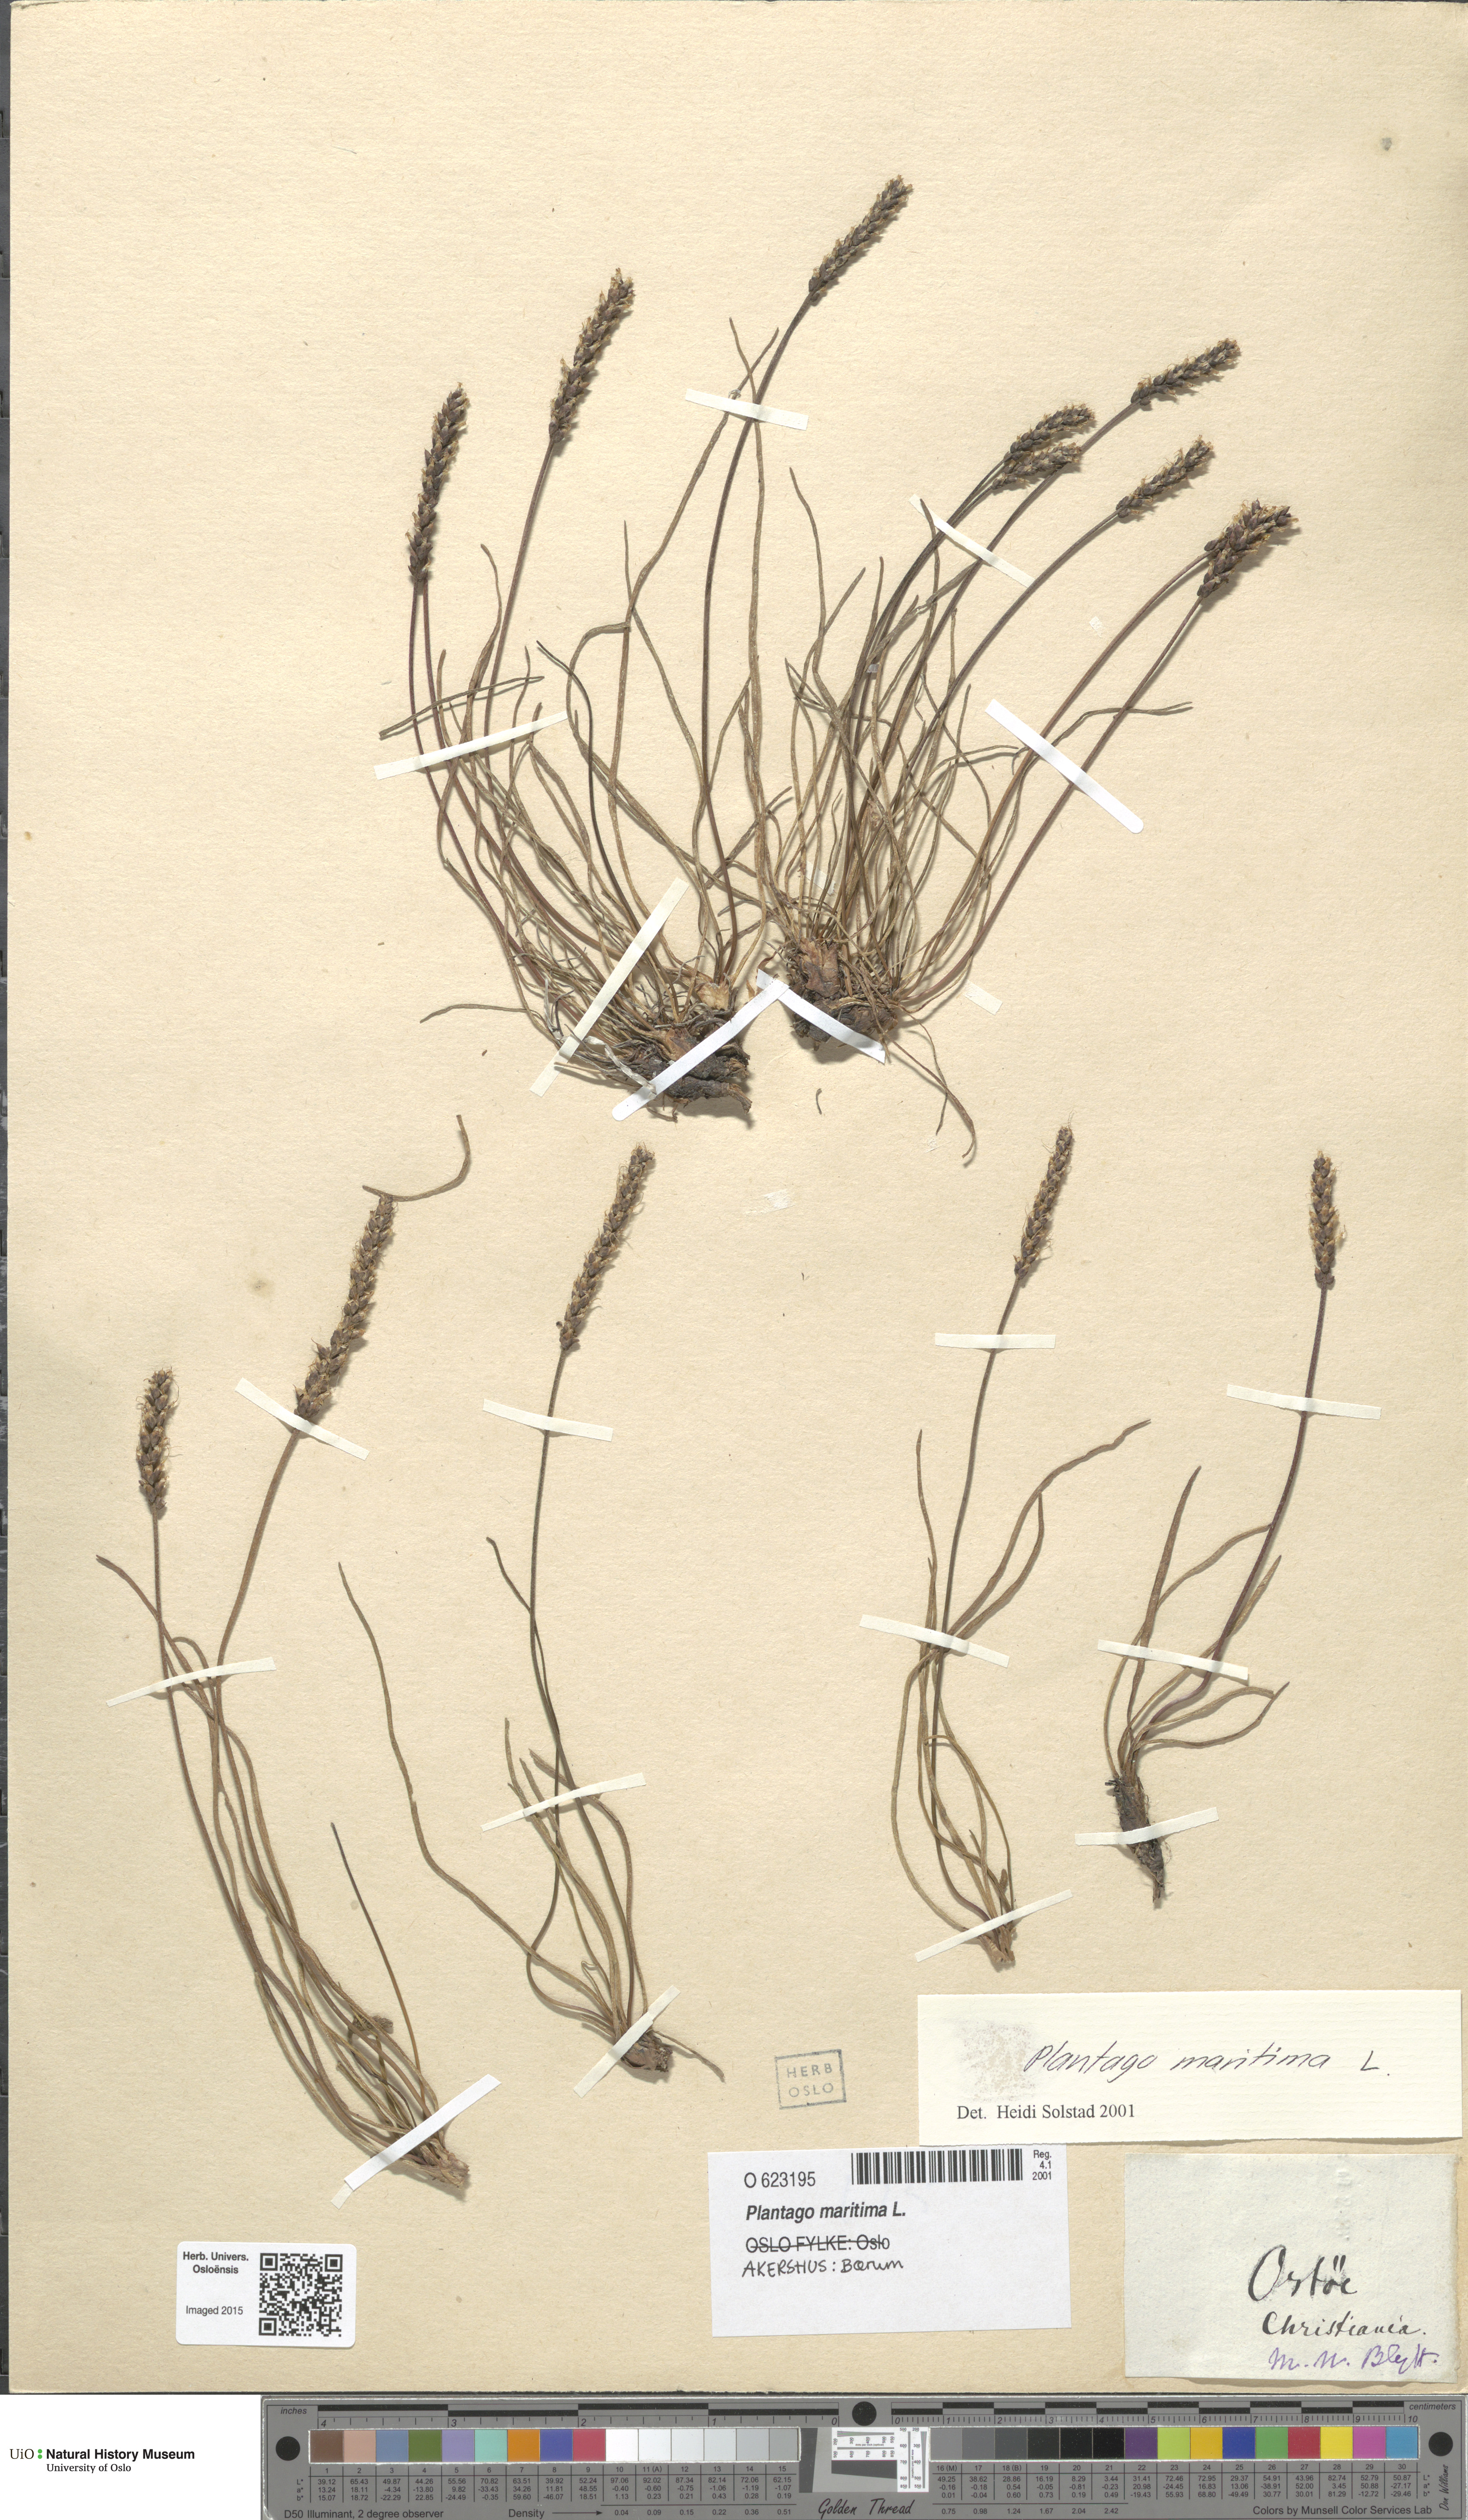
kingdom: Plantae
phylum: Tracheophyta
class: Magnoliopsida
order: Lamiales
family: Plantaginaceae
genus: Plantago
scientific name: Plantago maritima
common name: Sea plantain
